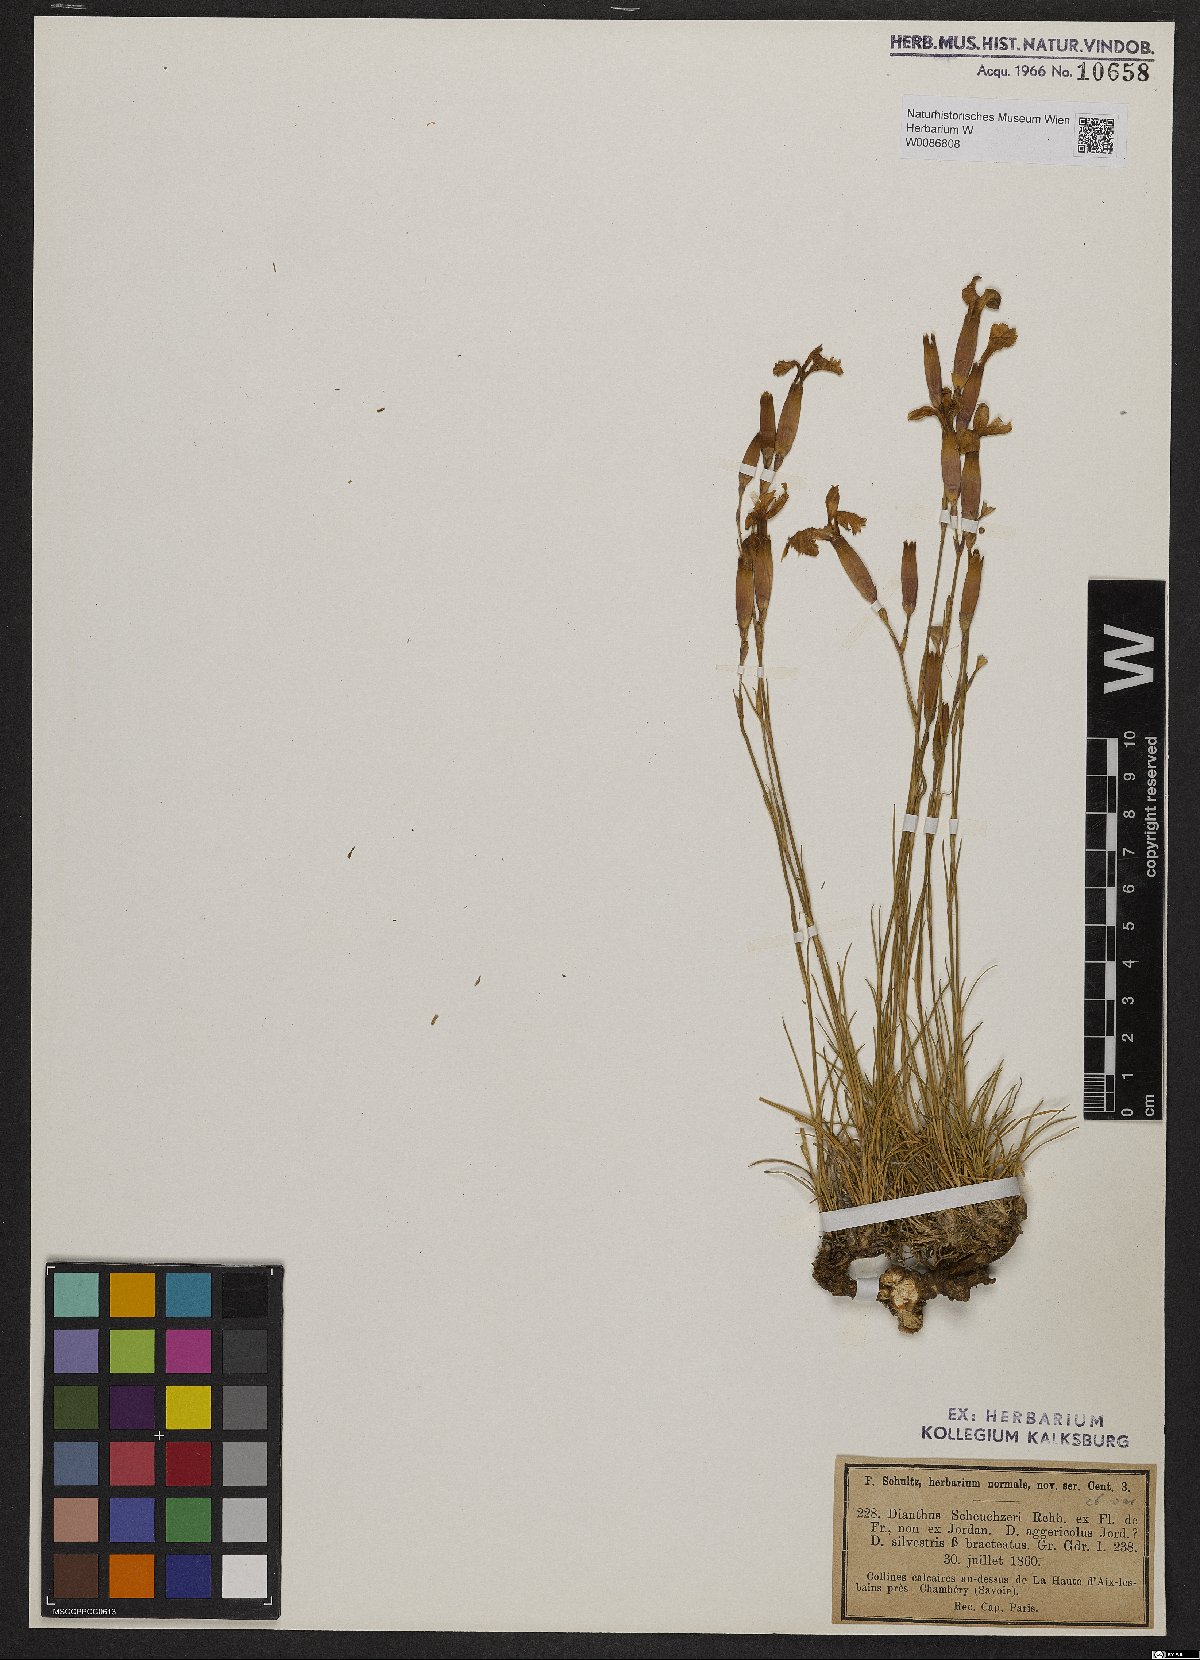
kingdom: Plantae
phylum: Tracheophyta
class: Magnoliopsida
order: Caryophyllales
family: Caryophyllaceae
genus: Dianthus
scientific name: Dianthus sylvestris
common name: Wood pink
